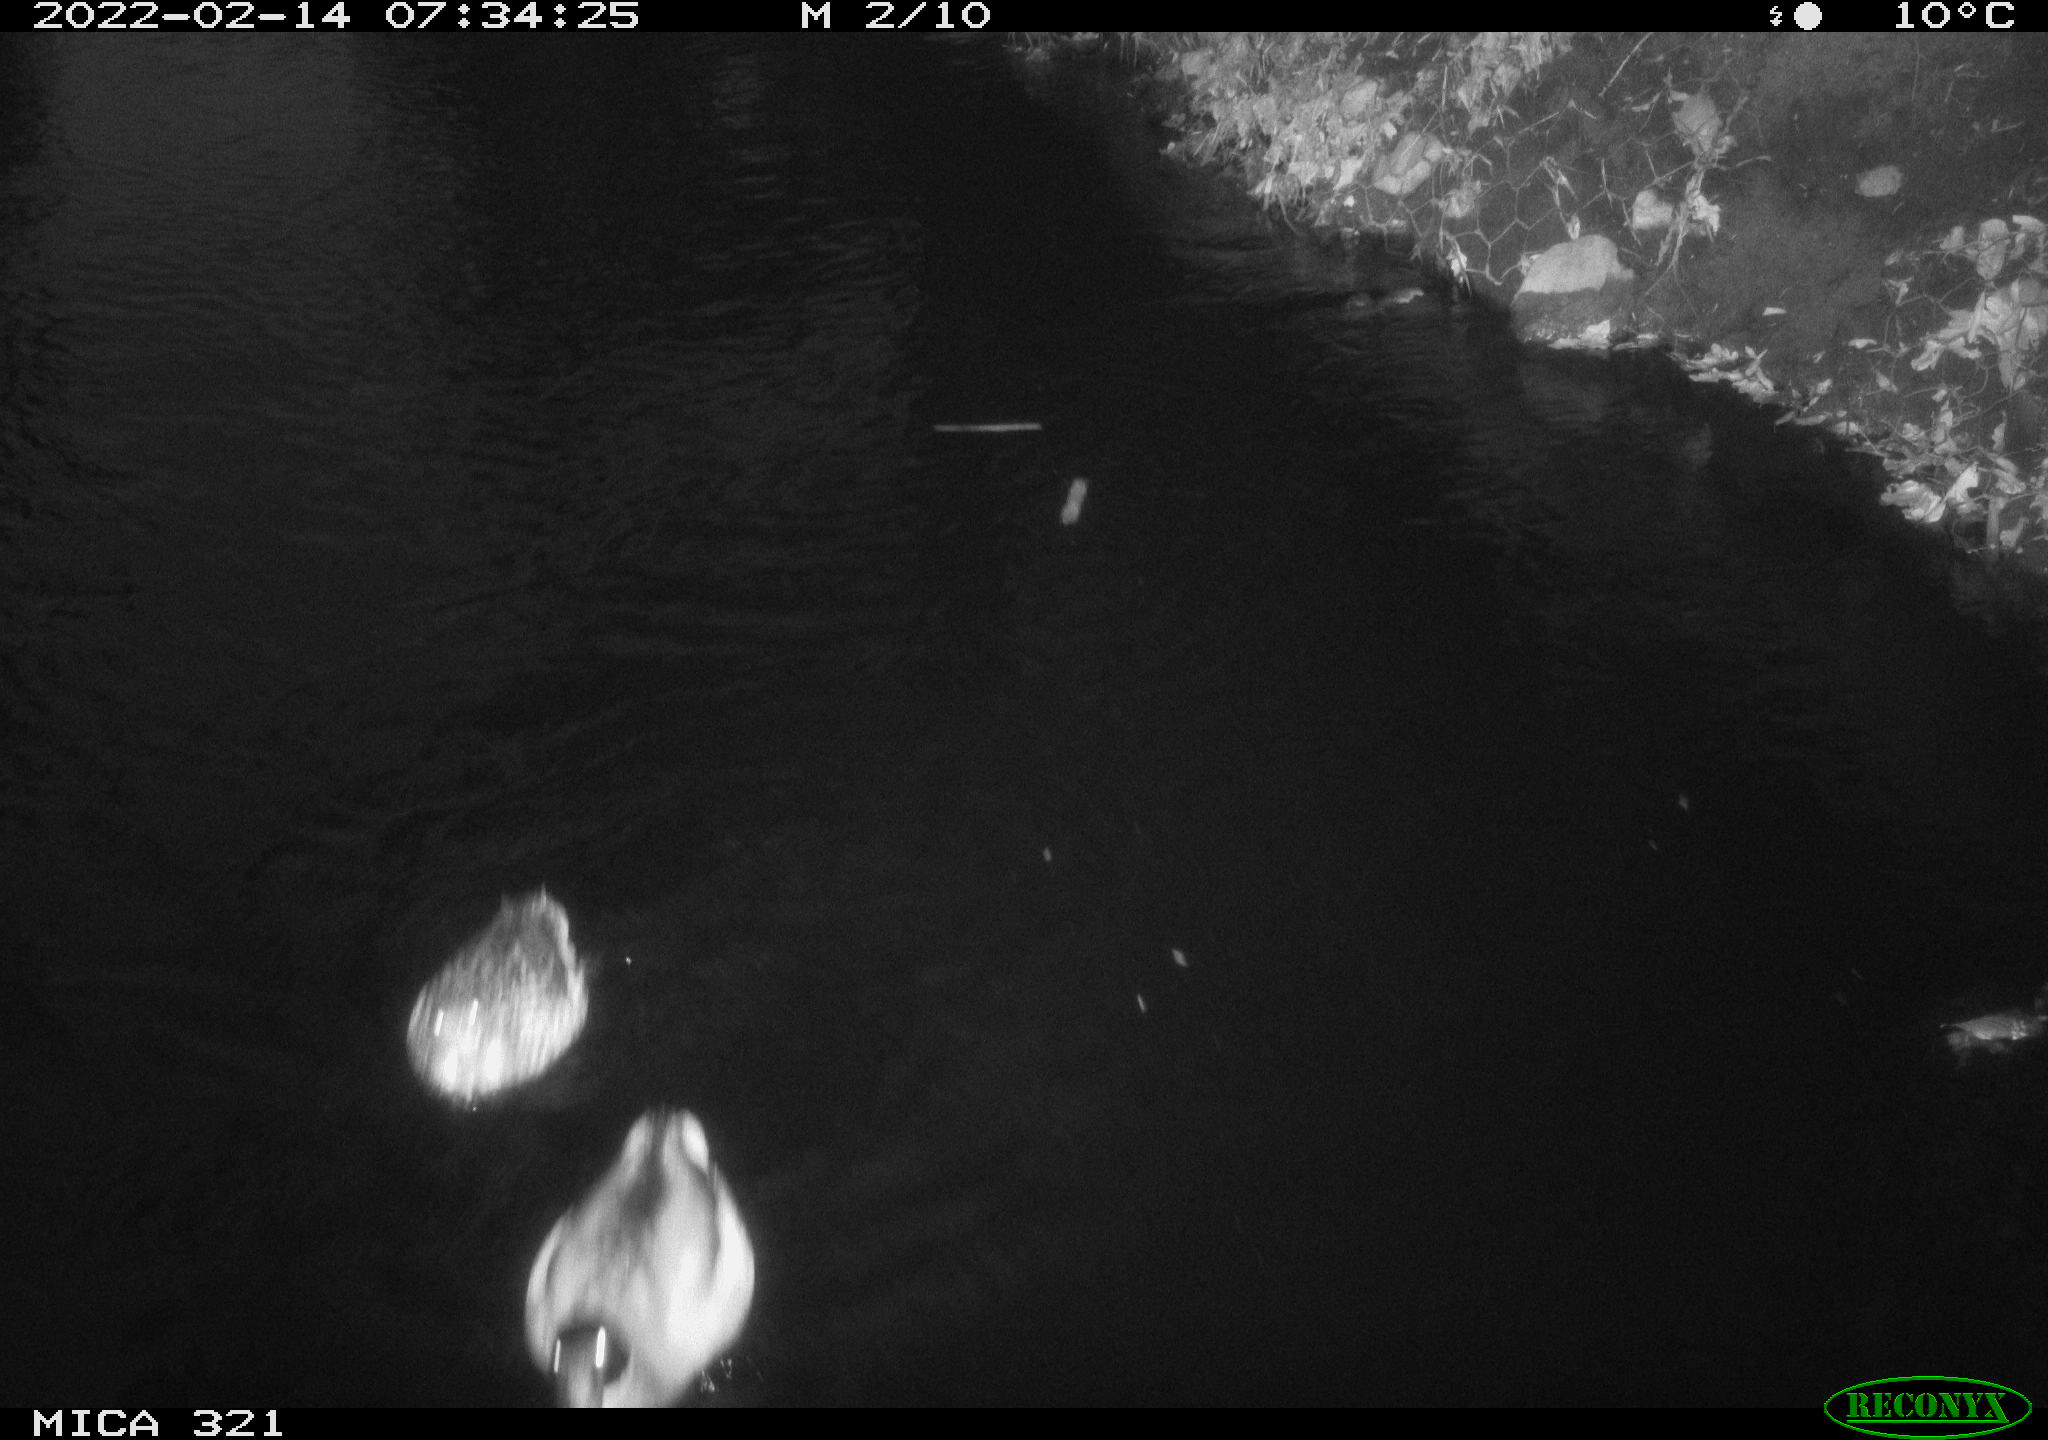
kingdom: Animalia
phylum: Chordata
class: Aves
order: Anseriformes
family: Anatidae
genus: Anas
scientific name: Anas platyrhynchos
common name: Mallard
